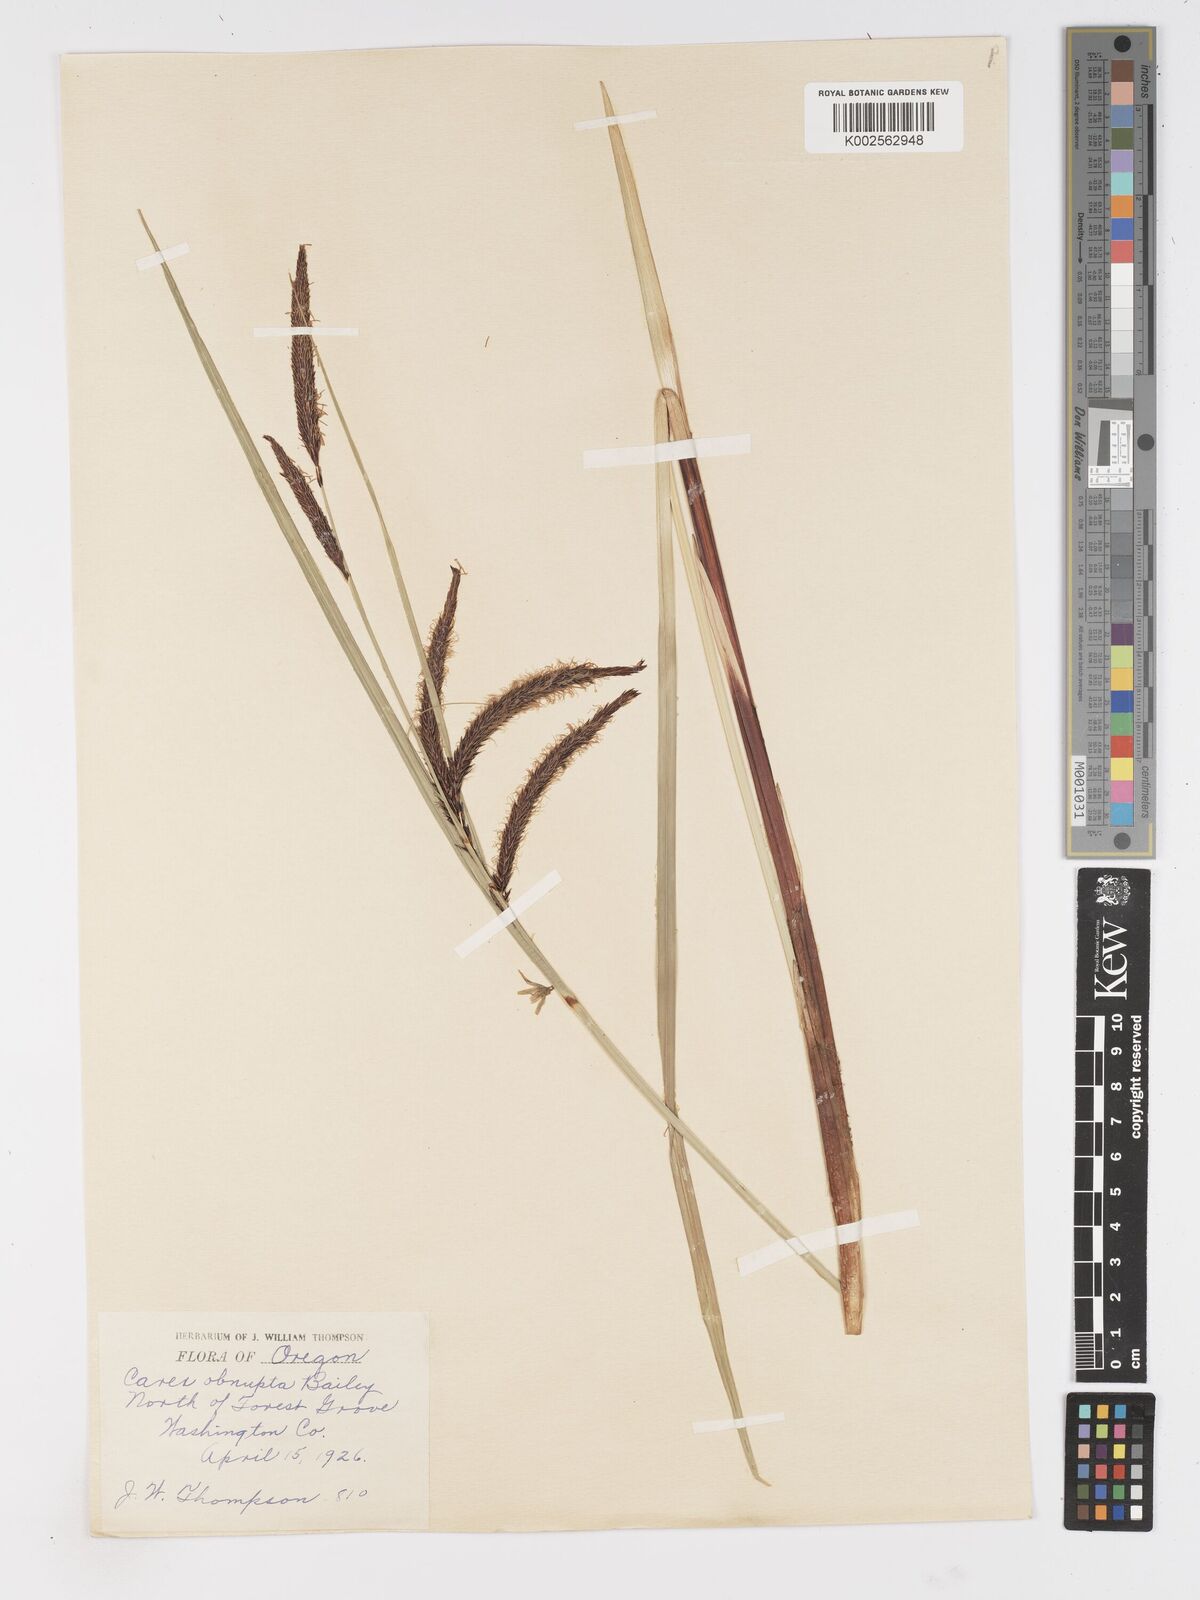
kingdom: Plantae
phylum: Tracheophyta
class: Liliopsida
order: Poales
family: Cyperaceae
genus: Carex
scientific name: Carex obnupta
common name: Slough sedge
